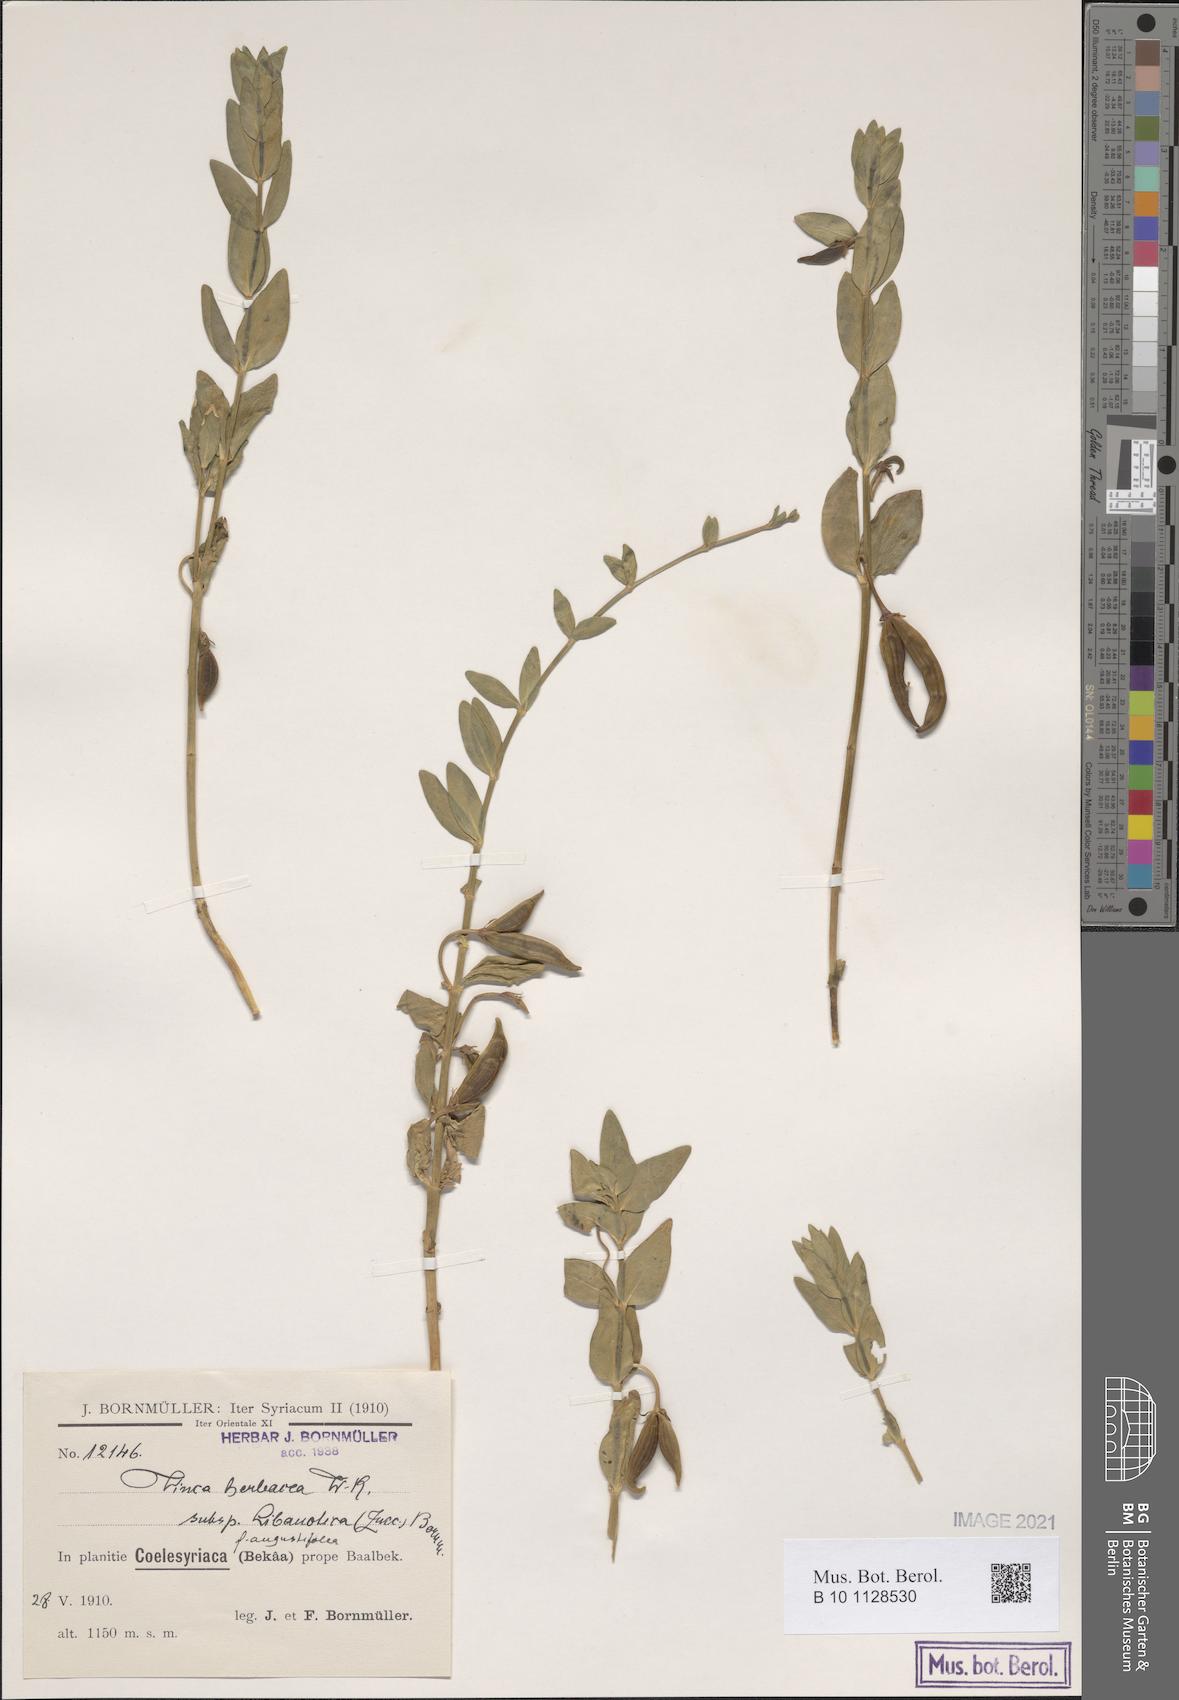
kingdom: Plantae
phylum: Tracheophyta
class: Magnoliopsida
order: Gentianales
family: Apocynaceae
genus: Vinca
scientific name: Vinca herbacea
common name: Herbaceous periwinkle
